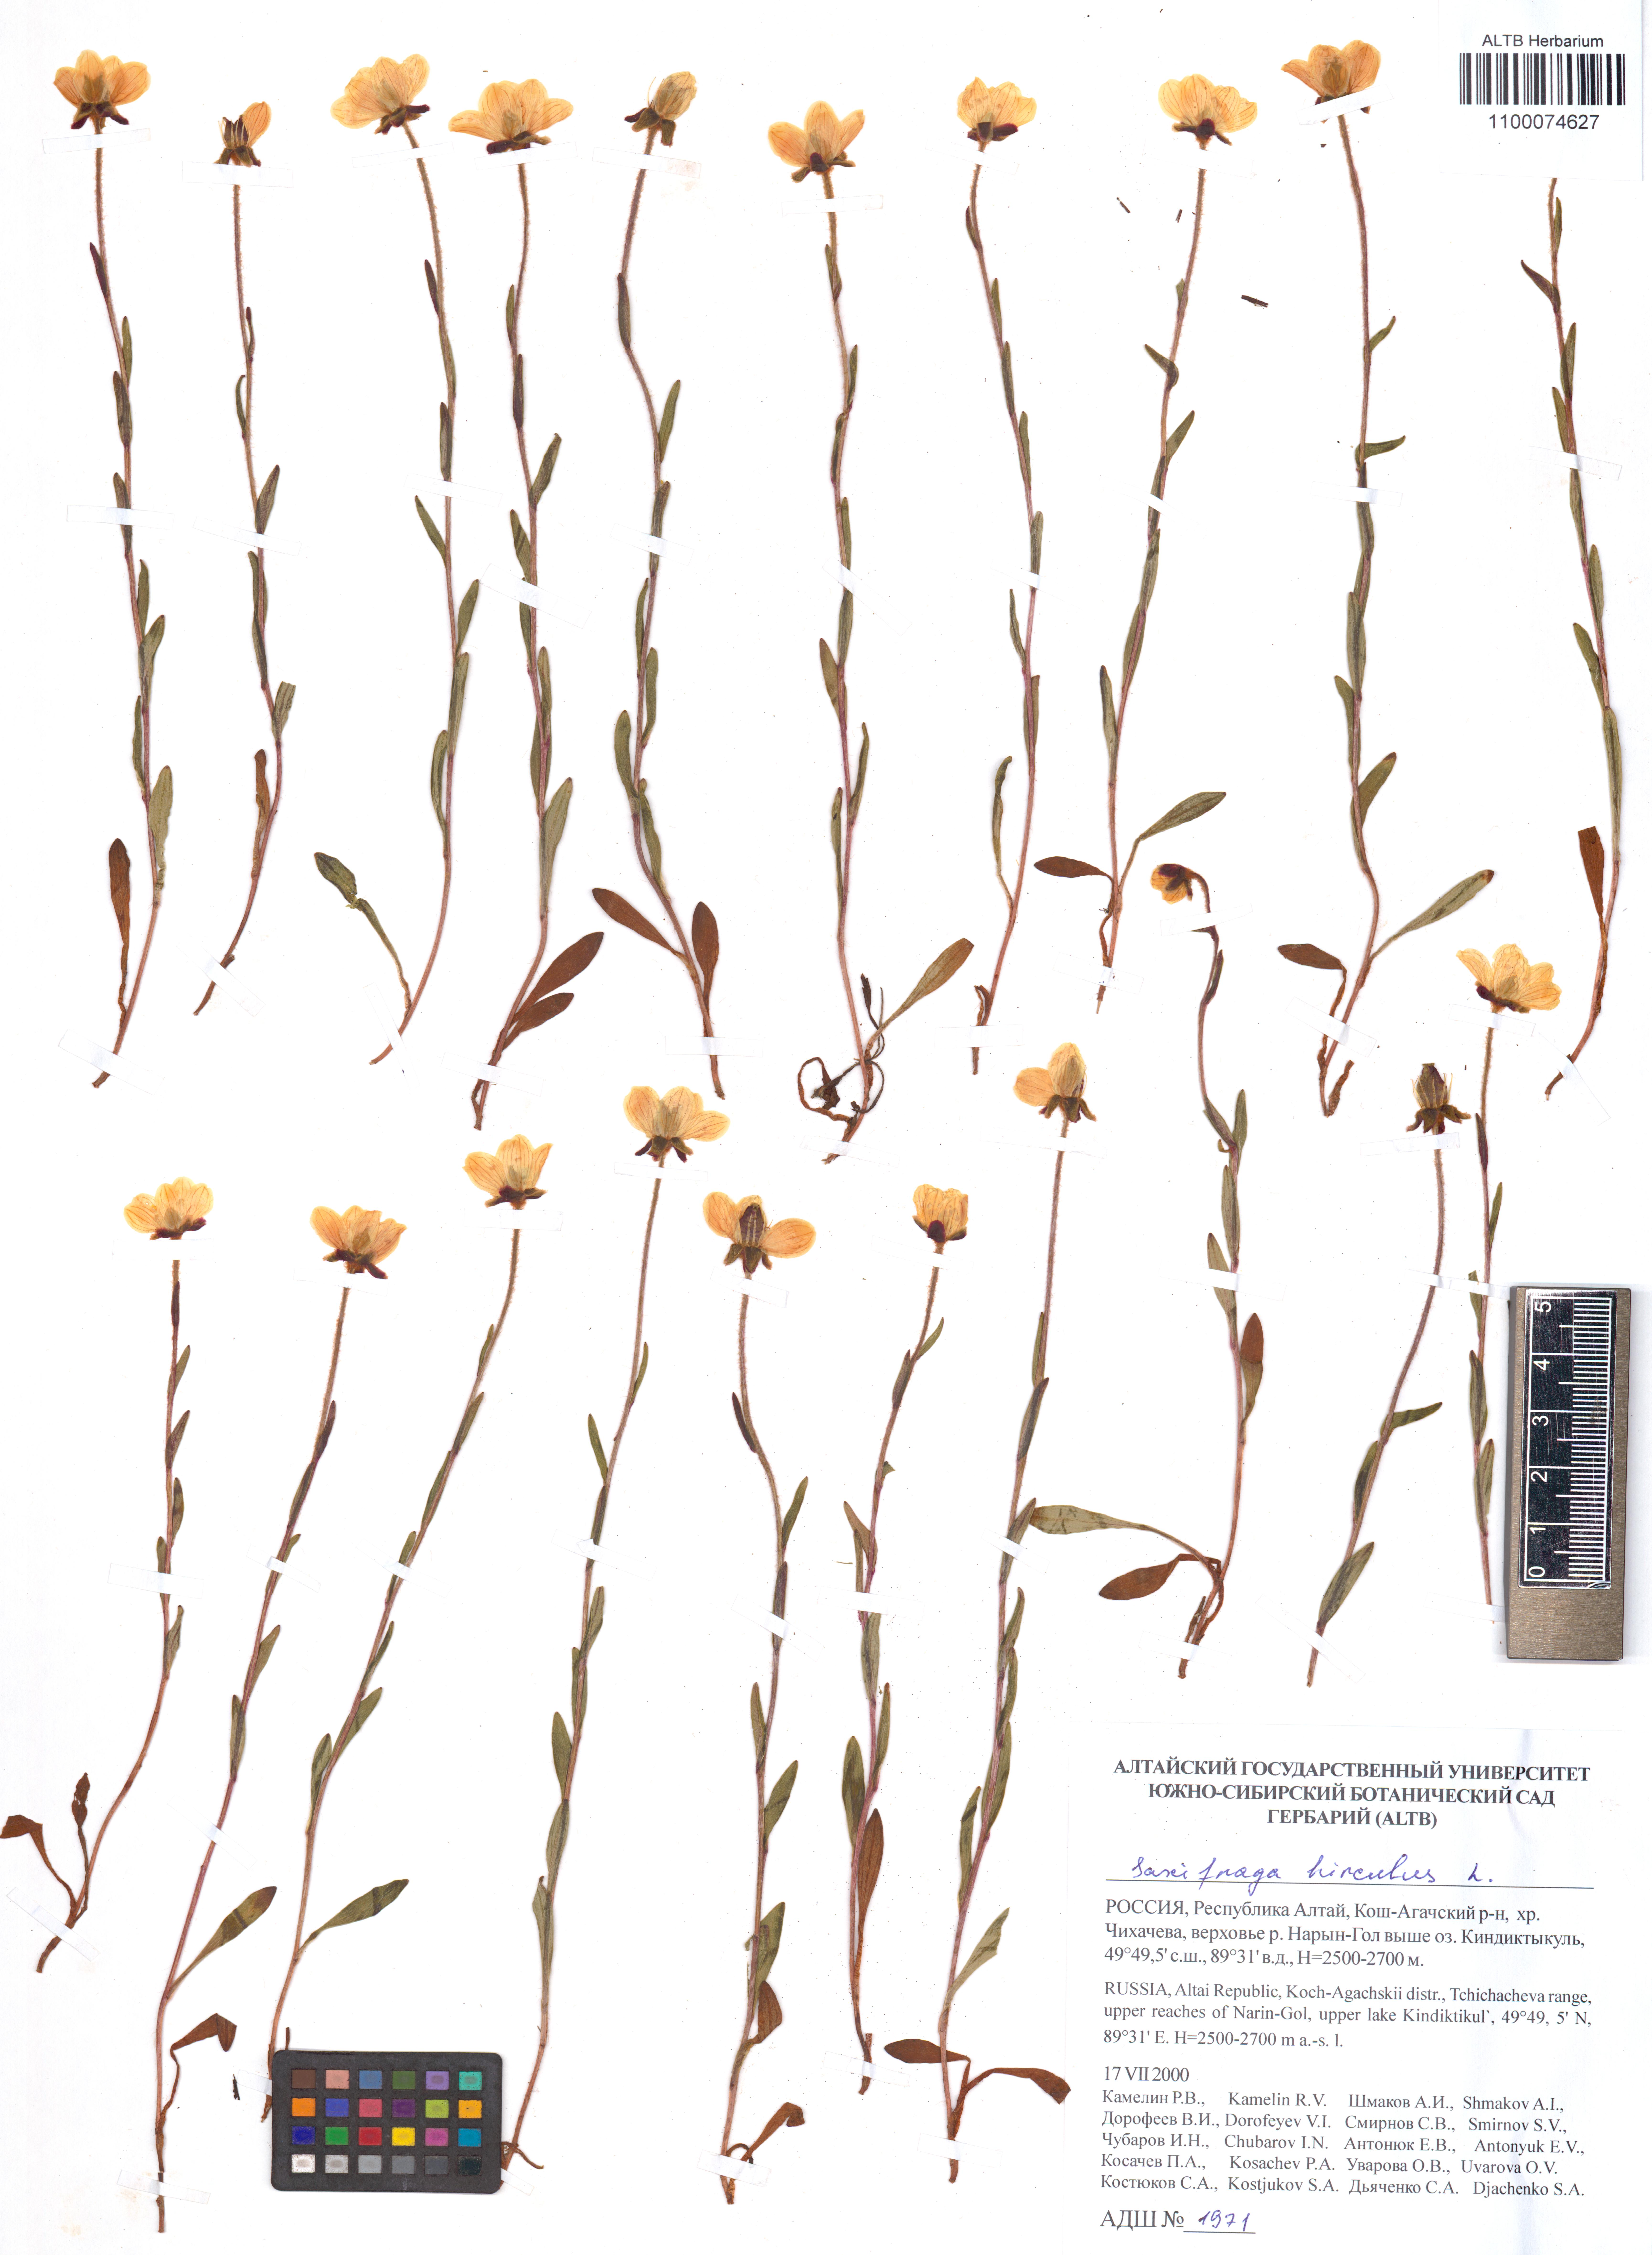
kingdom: Plantae
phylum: Tracheophyta
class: Magnoliopsida
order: Ericales
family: Ericaceae
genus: Vaccinium
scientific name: Vaccinium myrtillus
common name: Bilberry
